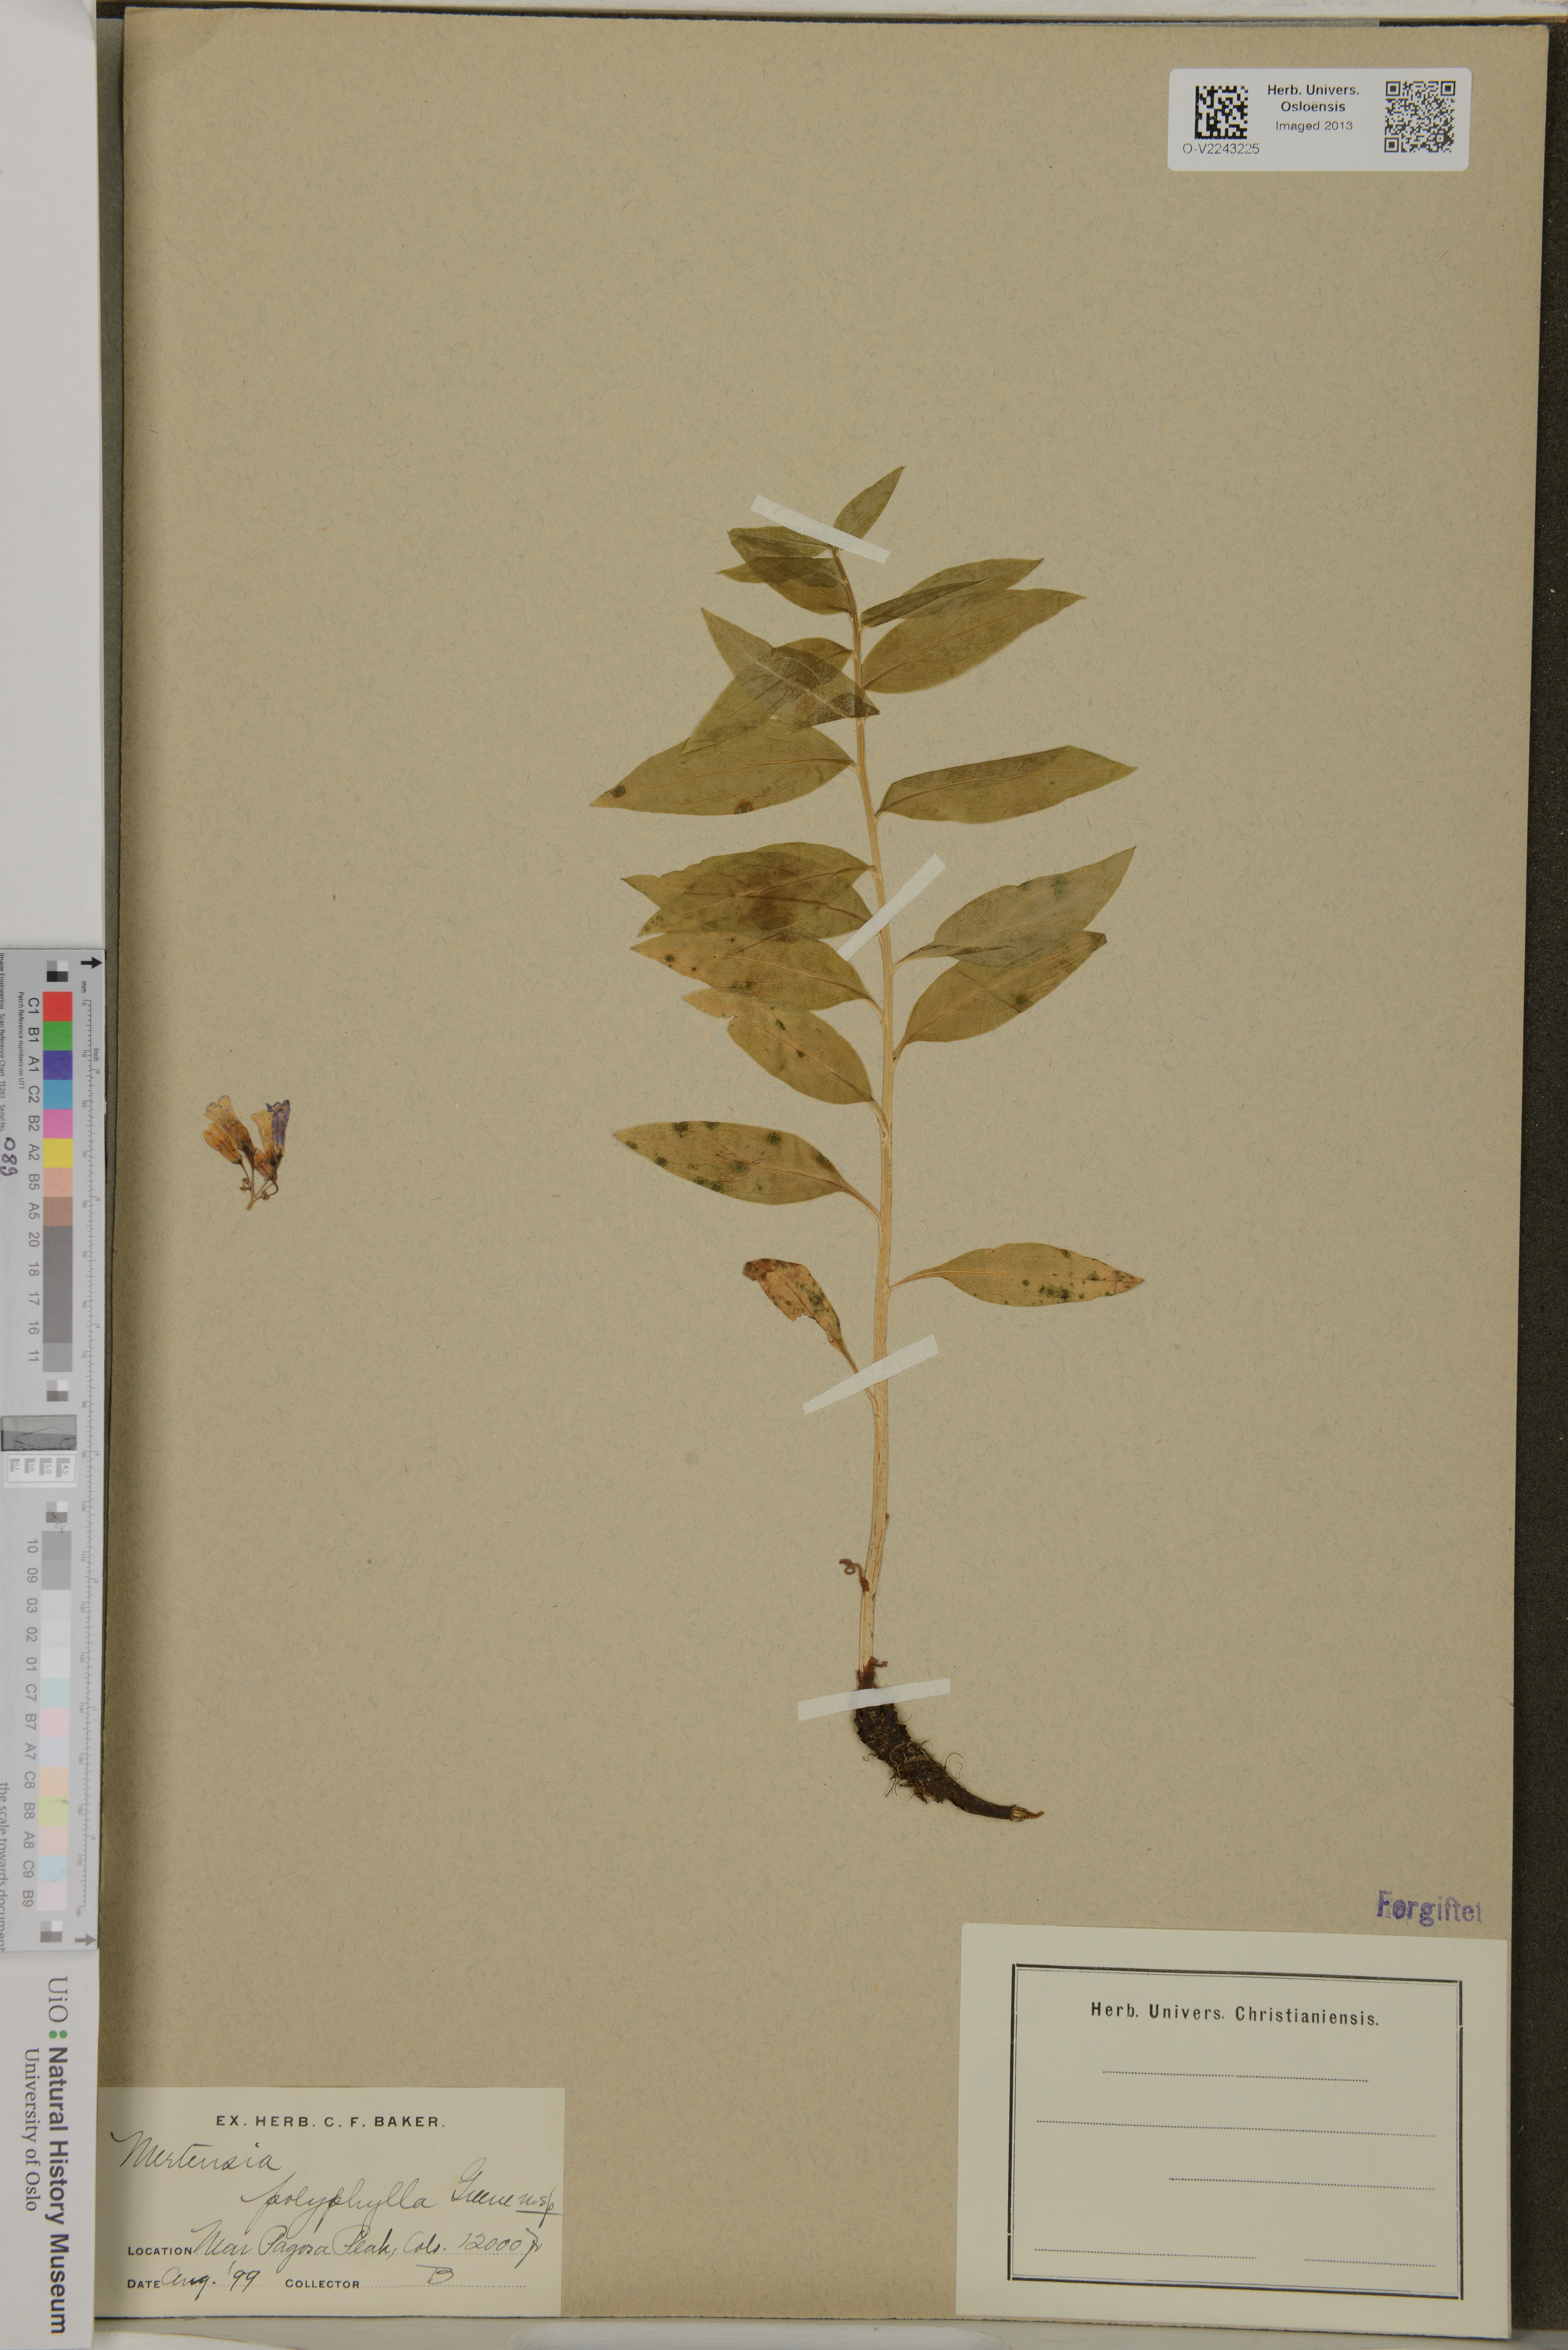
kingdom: Plantae
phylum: Tracheophyta
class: Magnoliopsida
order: Boraginales
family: Boraginaceae
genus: Mertensia
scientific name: Mertensia ciliata
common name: Tall chiming-bells
